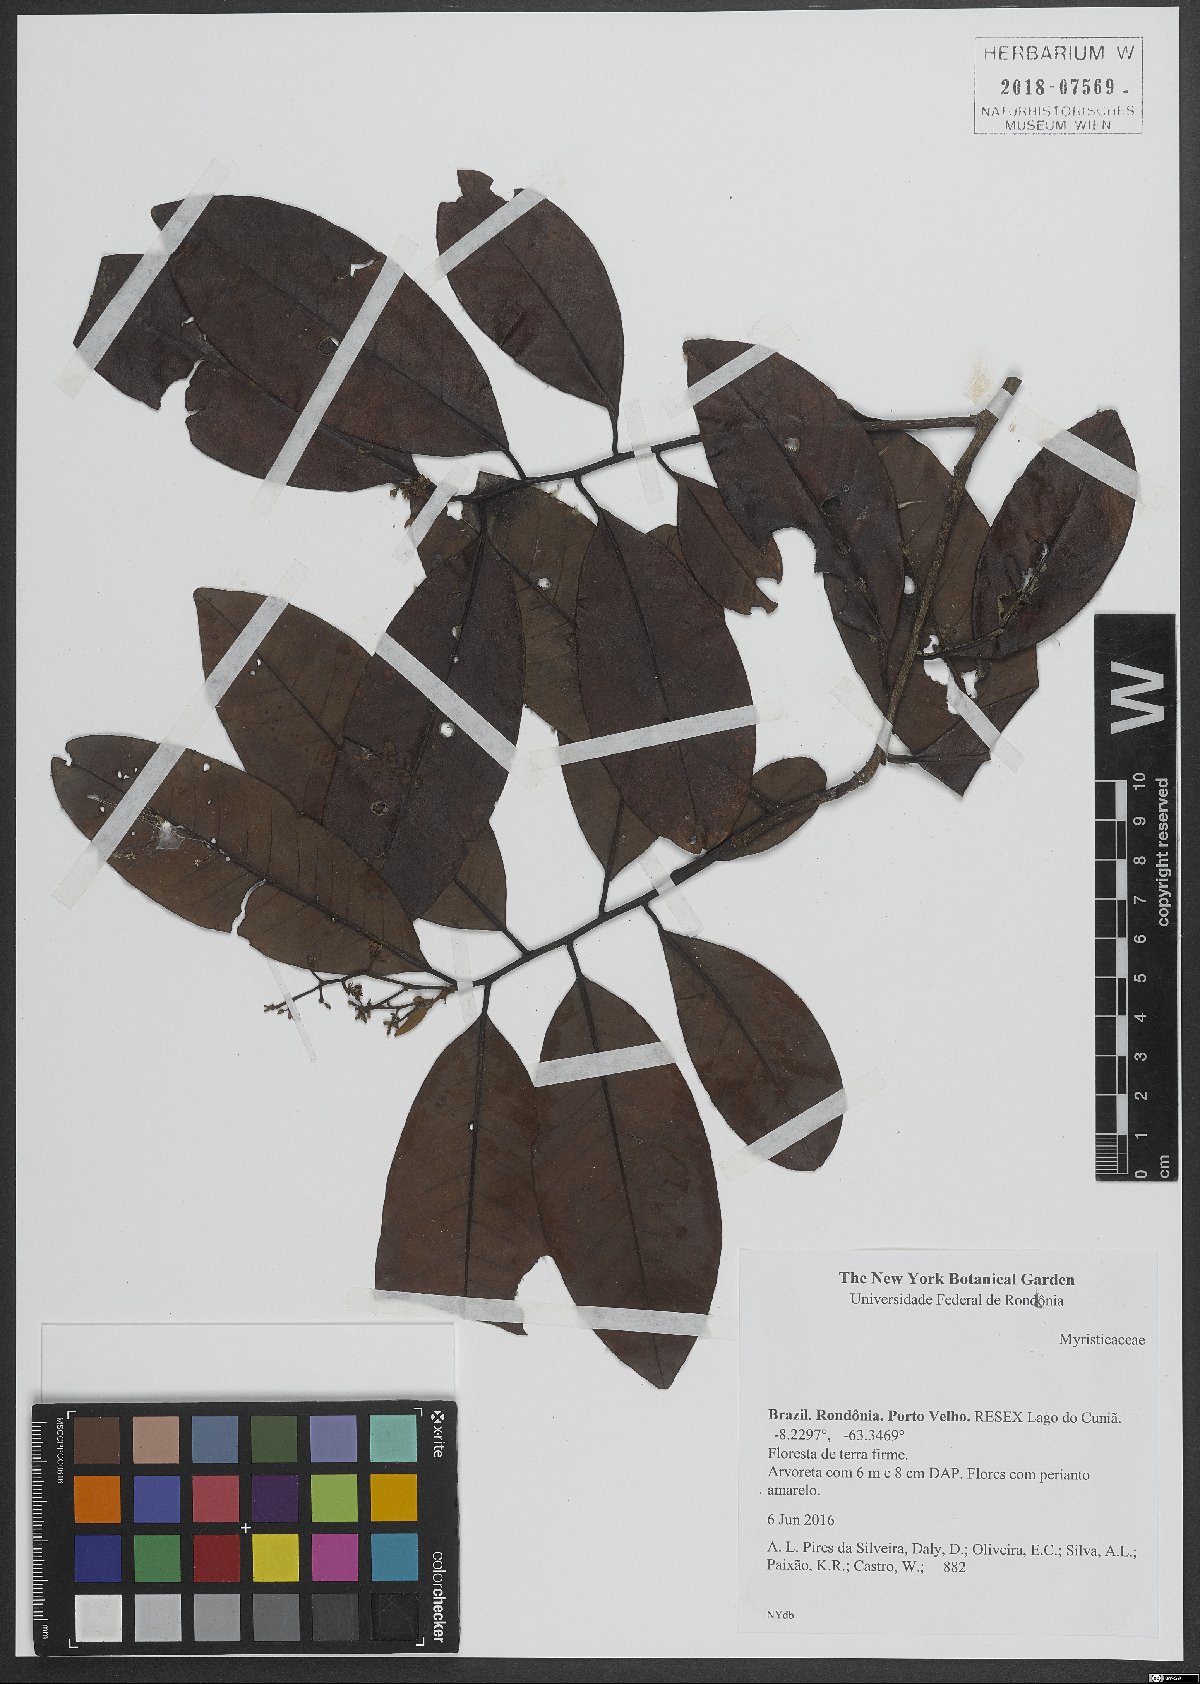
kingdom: Plantae
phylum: Tracheophyta
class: Magnoliopsida
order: Magnoliales
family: Myristicaceae
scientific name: Myristicaceae
